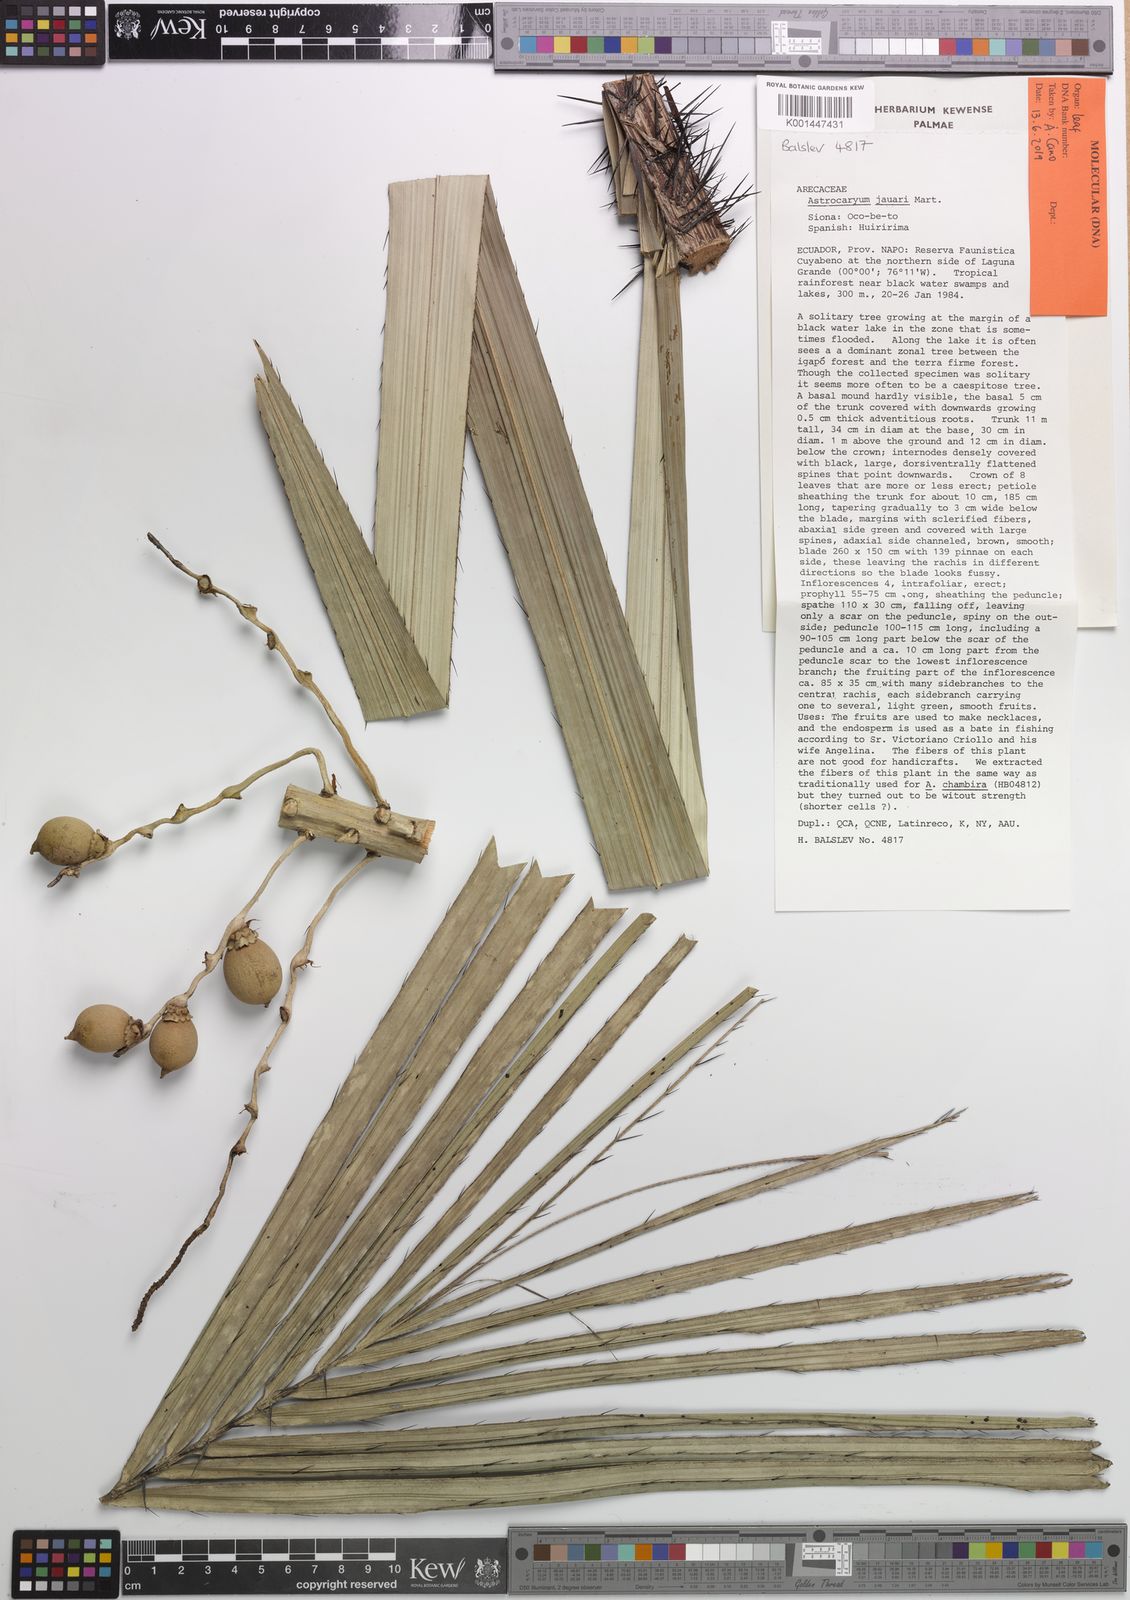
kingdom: Plantae
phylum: Tracheophyta
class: Liliopsida
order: Arecales
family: Arecaceae
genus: Astrocaryum
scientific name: Astrocaryum jauari
